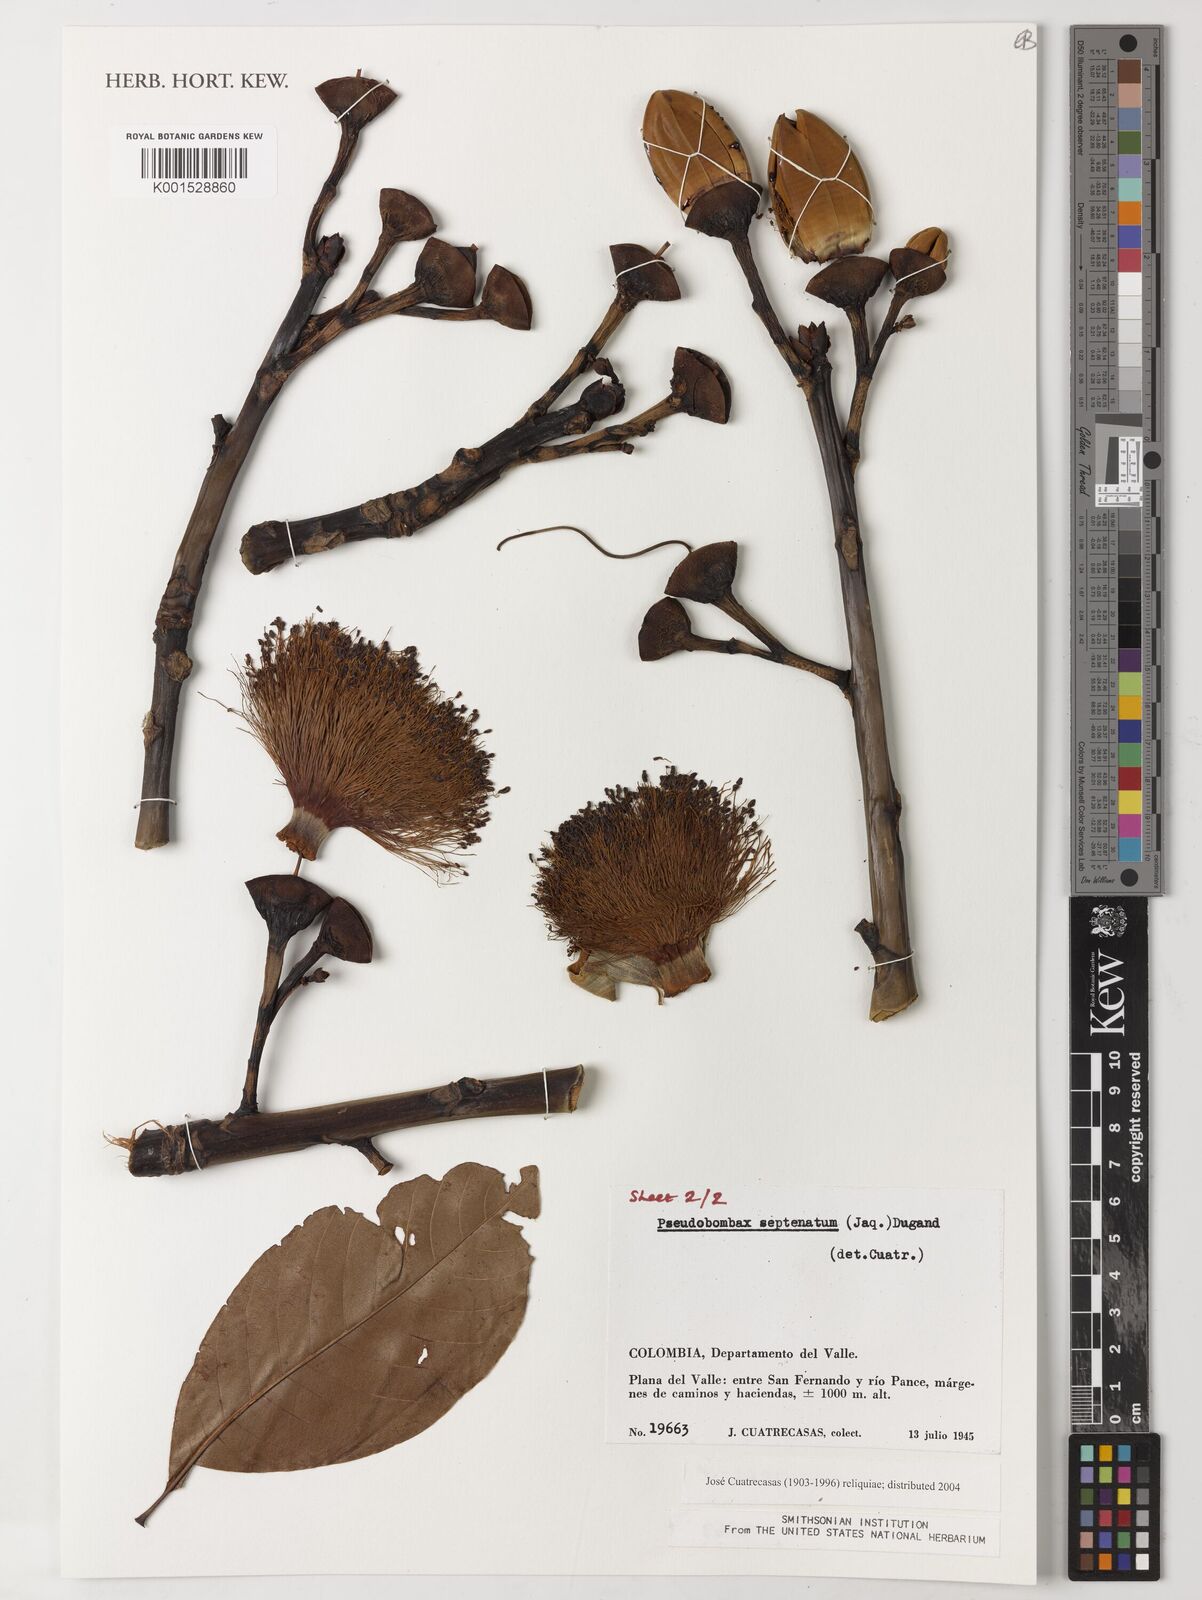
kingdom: Plantae
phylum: Tracheophyta
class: Magnoliopsida
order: Malvales
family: Malvaceae
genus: Pseudobombax
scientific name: Pseudobombax septenatum
